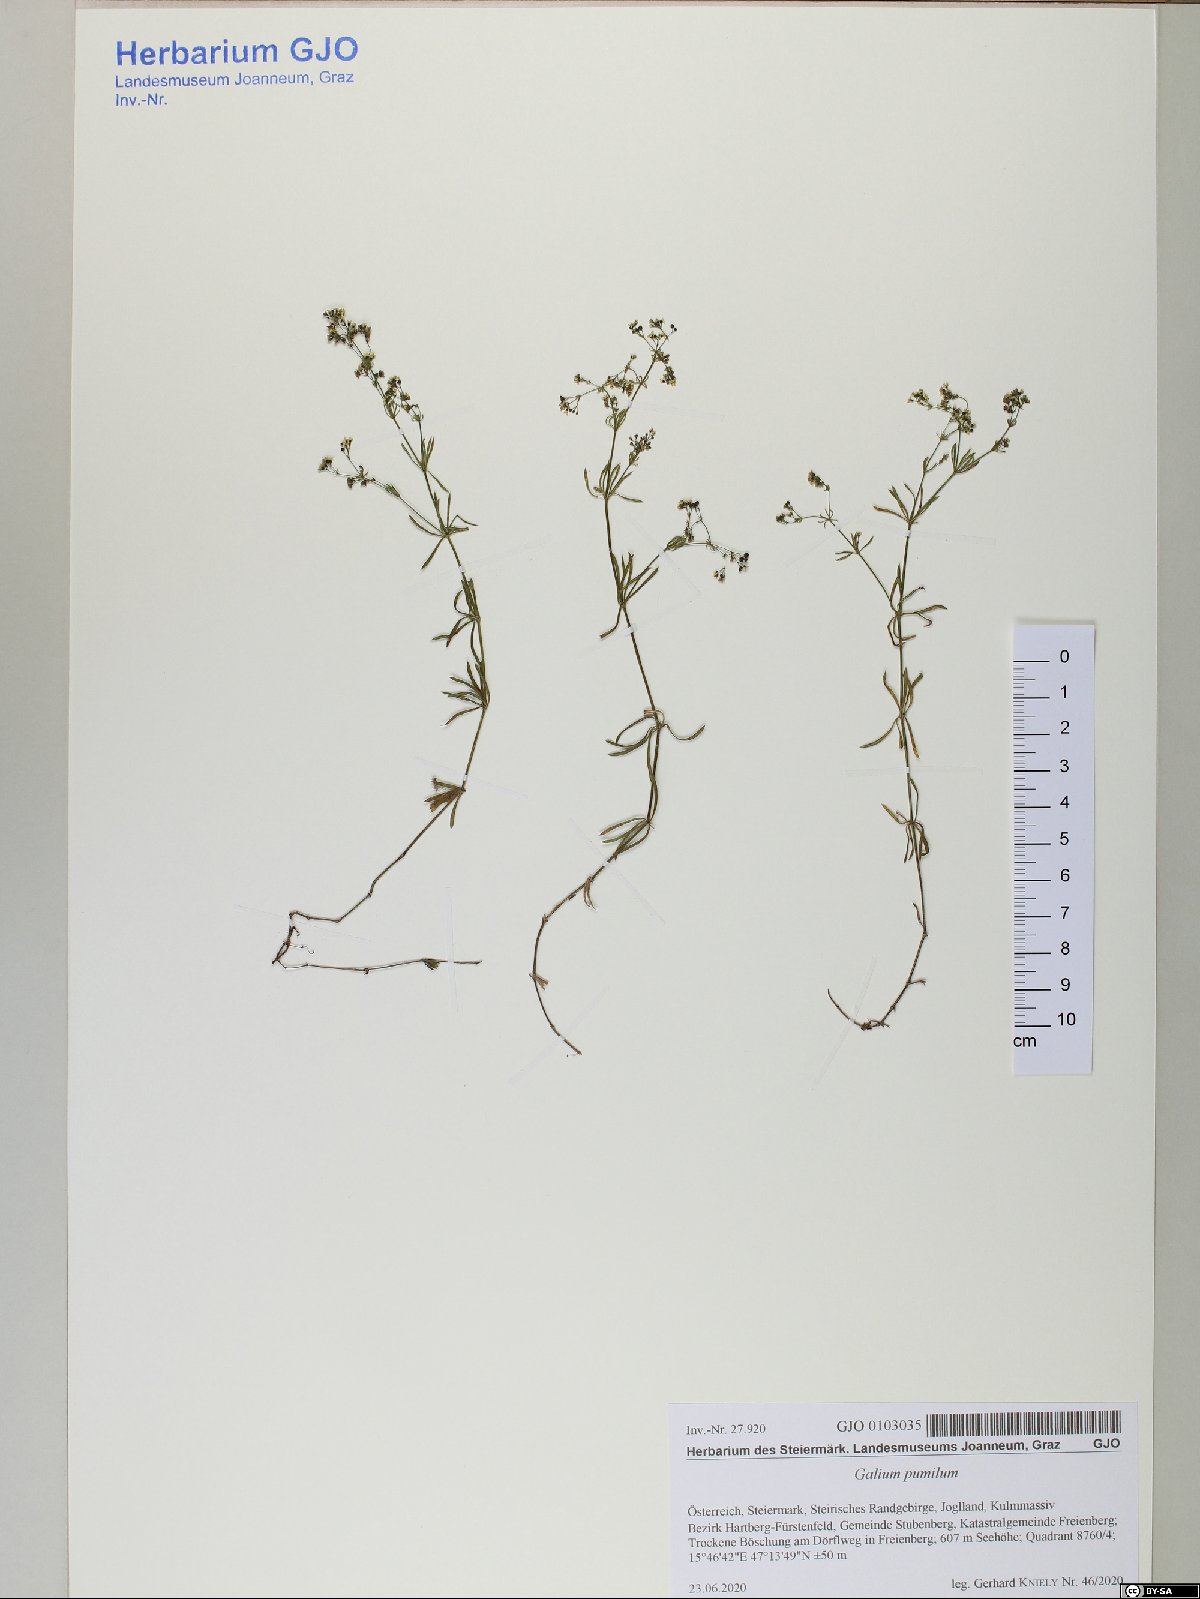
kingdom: Plantae
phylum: Tracheophyta
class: Magnoliopsida
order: Gentianales
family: Rubiaceae
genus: Galium
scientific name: Galium pumilum
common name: Slender bedstraw
